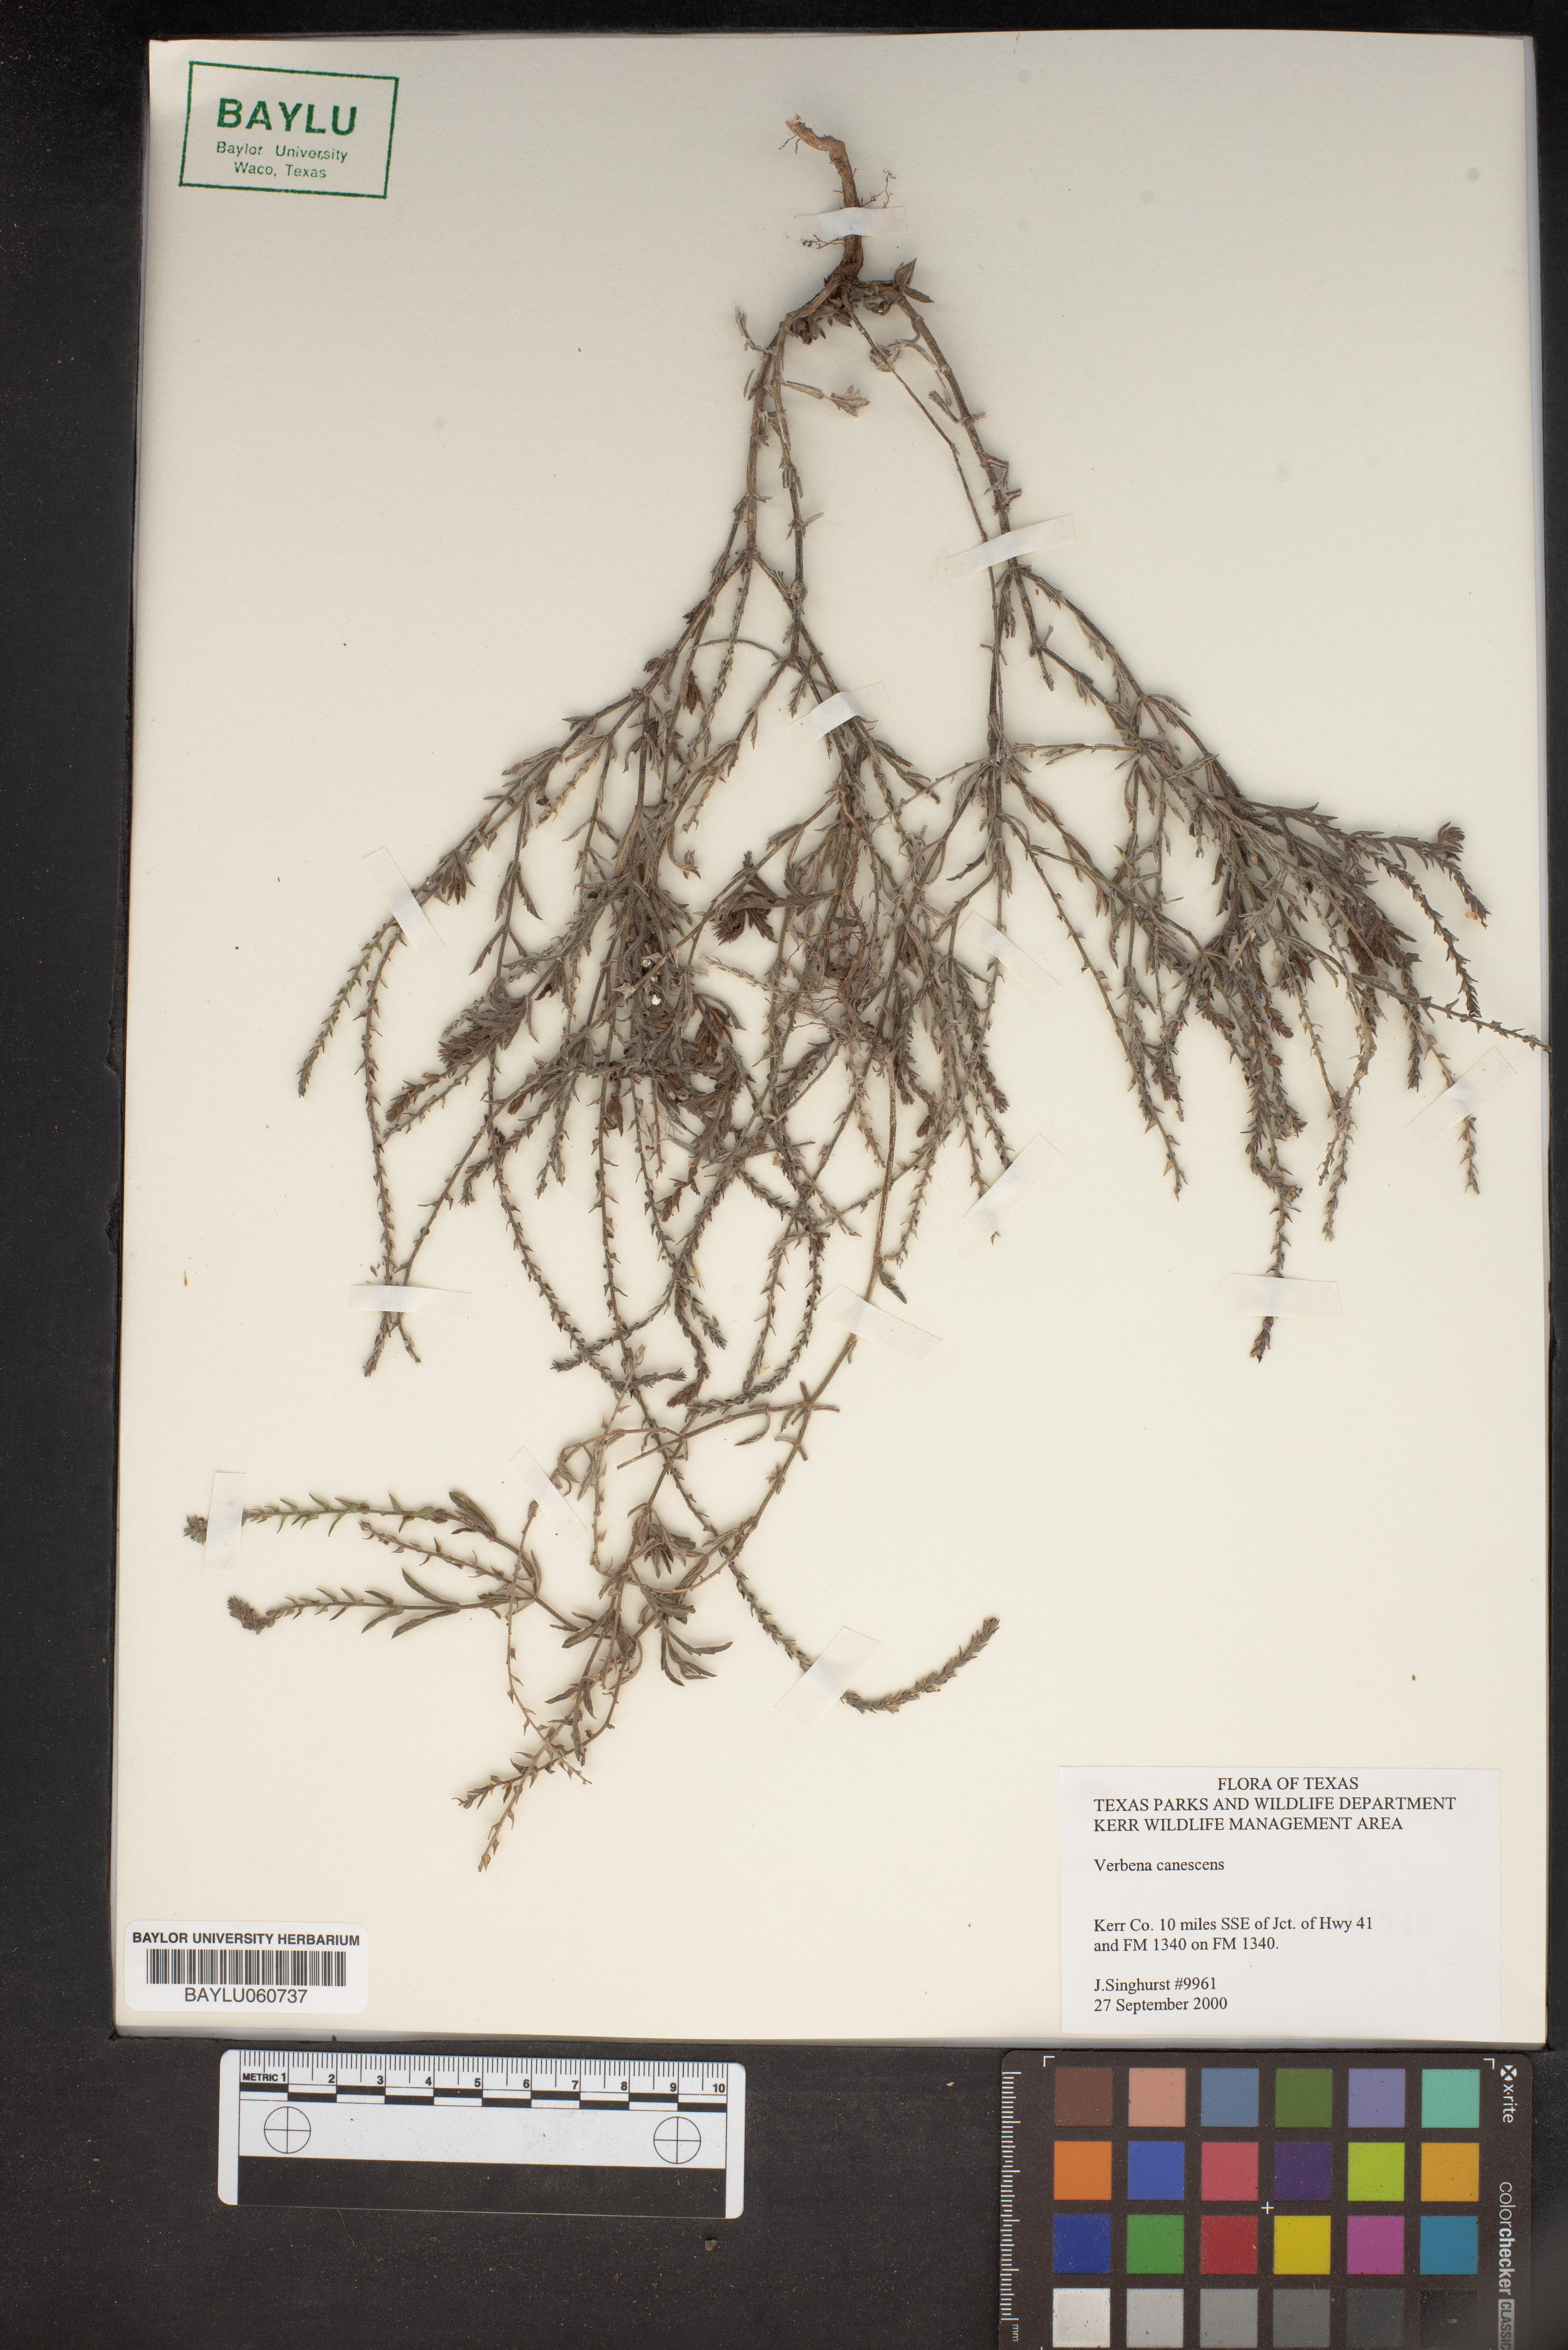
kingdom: Plantae
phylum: Tracheophyta
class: Magnoliopsida
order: Lamiales
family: Verbenaceae
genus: Verbena
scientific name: Verbena canescens
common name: Gray vervain
